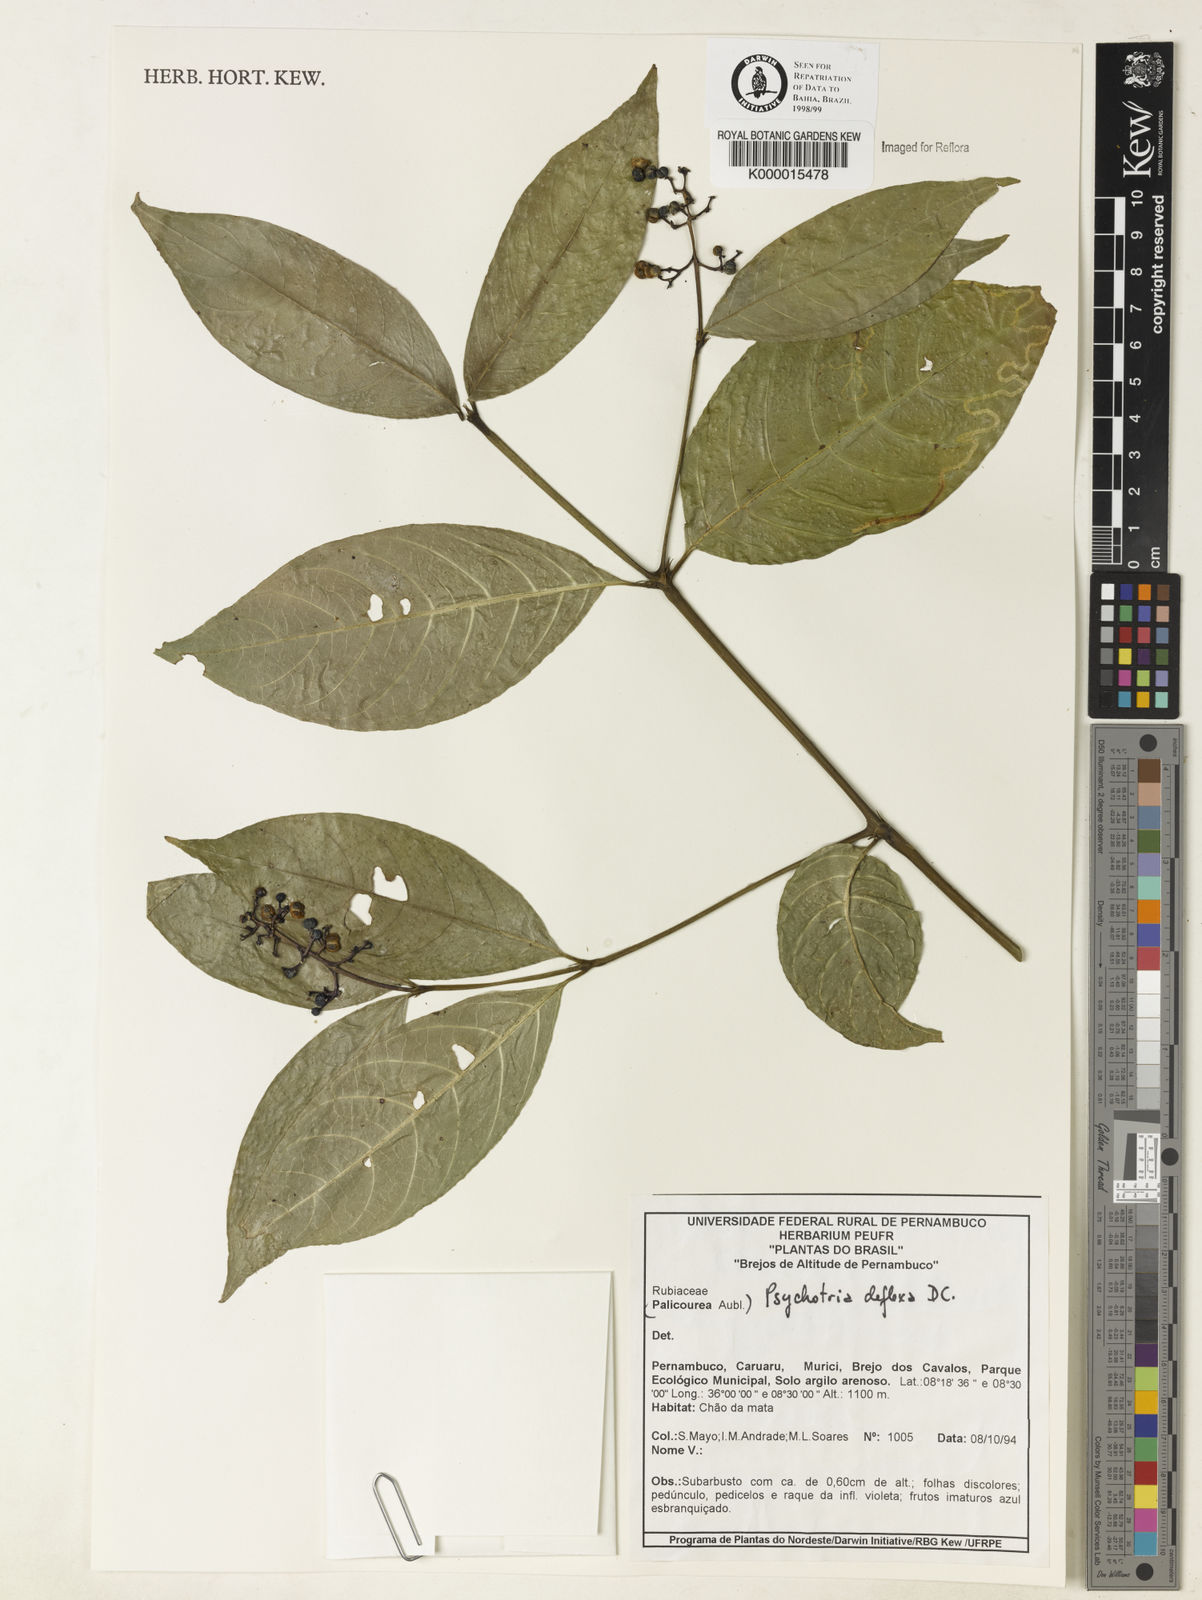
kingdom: Plantae
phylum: Tracheophyta
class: Magnoliopsida
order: Gentianales
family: Rubiaceae
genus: Palicourea
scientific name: Palicourea deflexa
